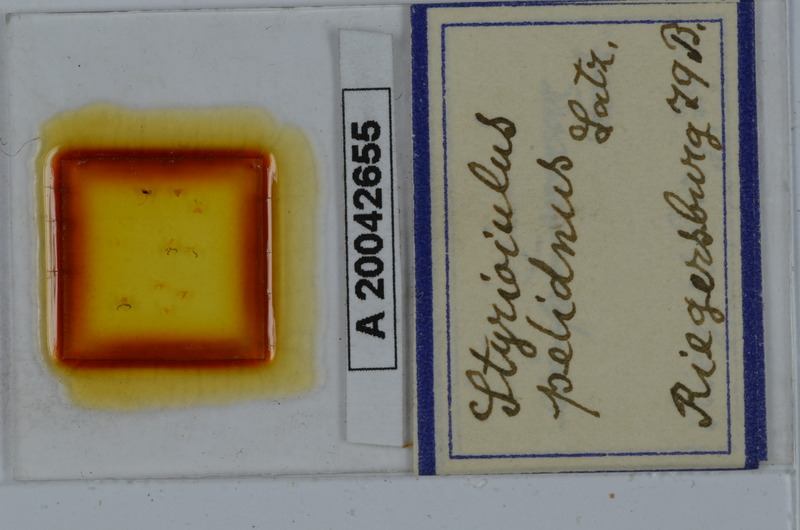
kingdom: Animalia
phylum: Arthropoda
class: Diplopoda
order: Julida
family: Julidae
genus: Styrioiulus
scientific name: Styrioiulus pelidnus
